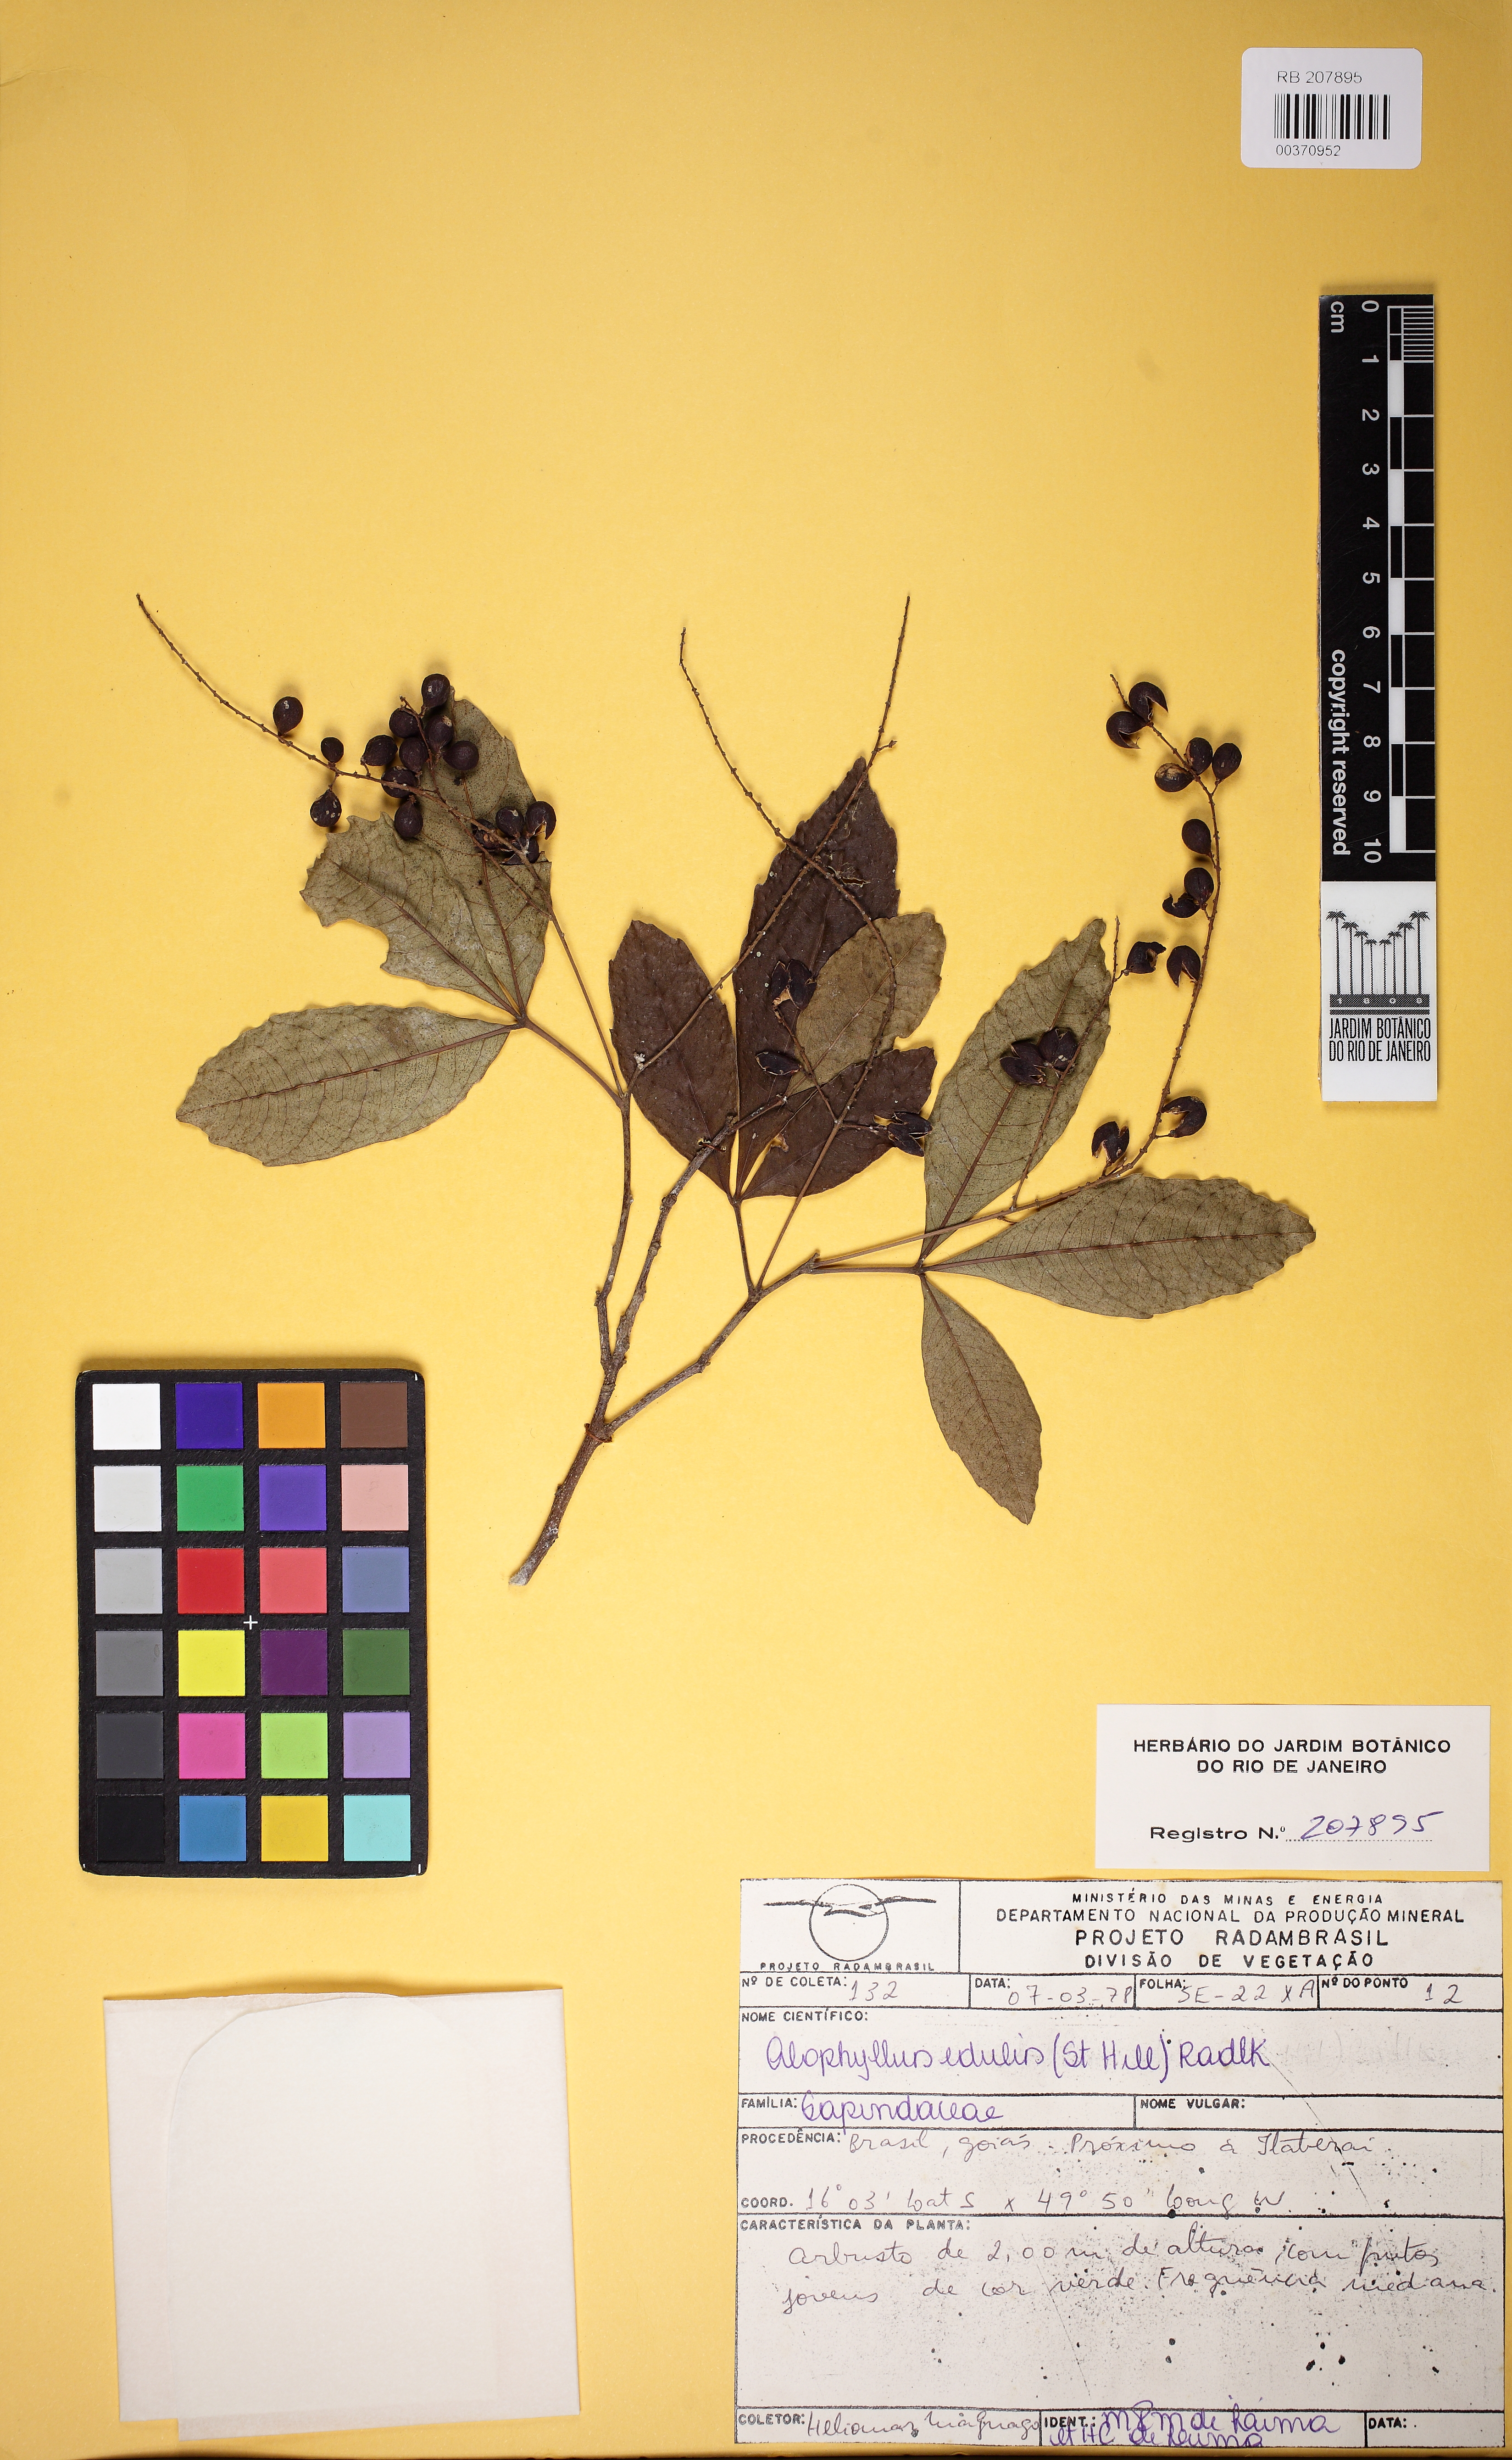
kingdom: Plantae
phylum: Tracheophyta
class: Magnoliopsida
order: Sapindales
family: Sapindaceae
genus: Allophylus
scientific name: Allophylus strictus
